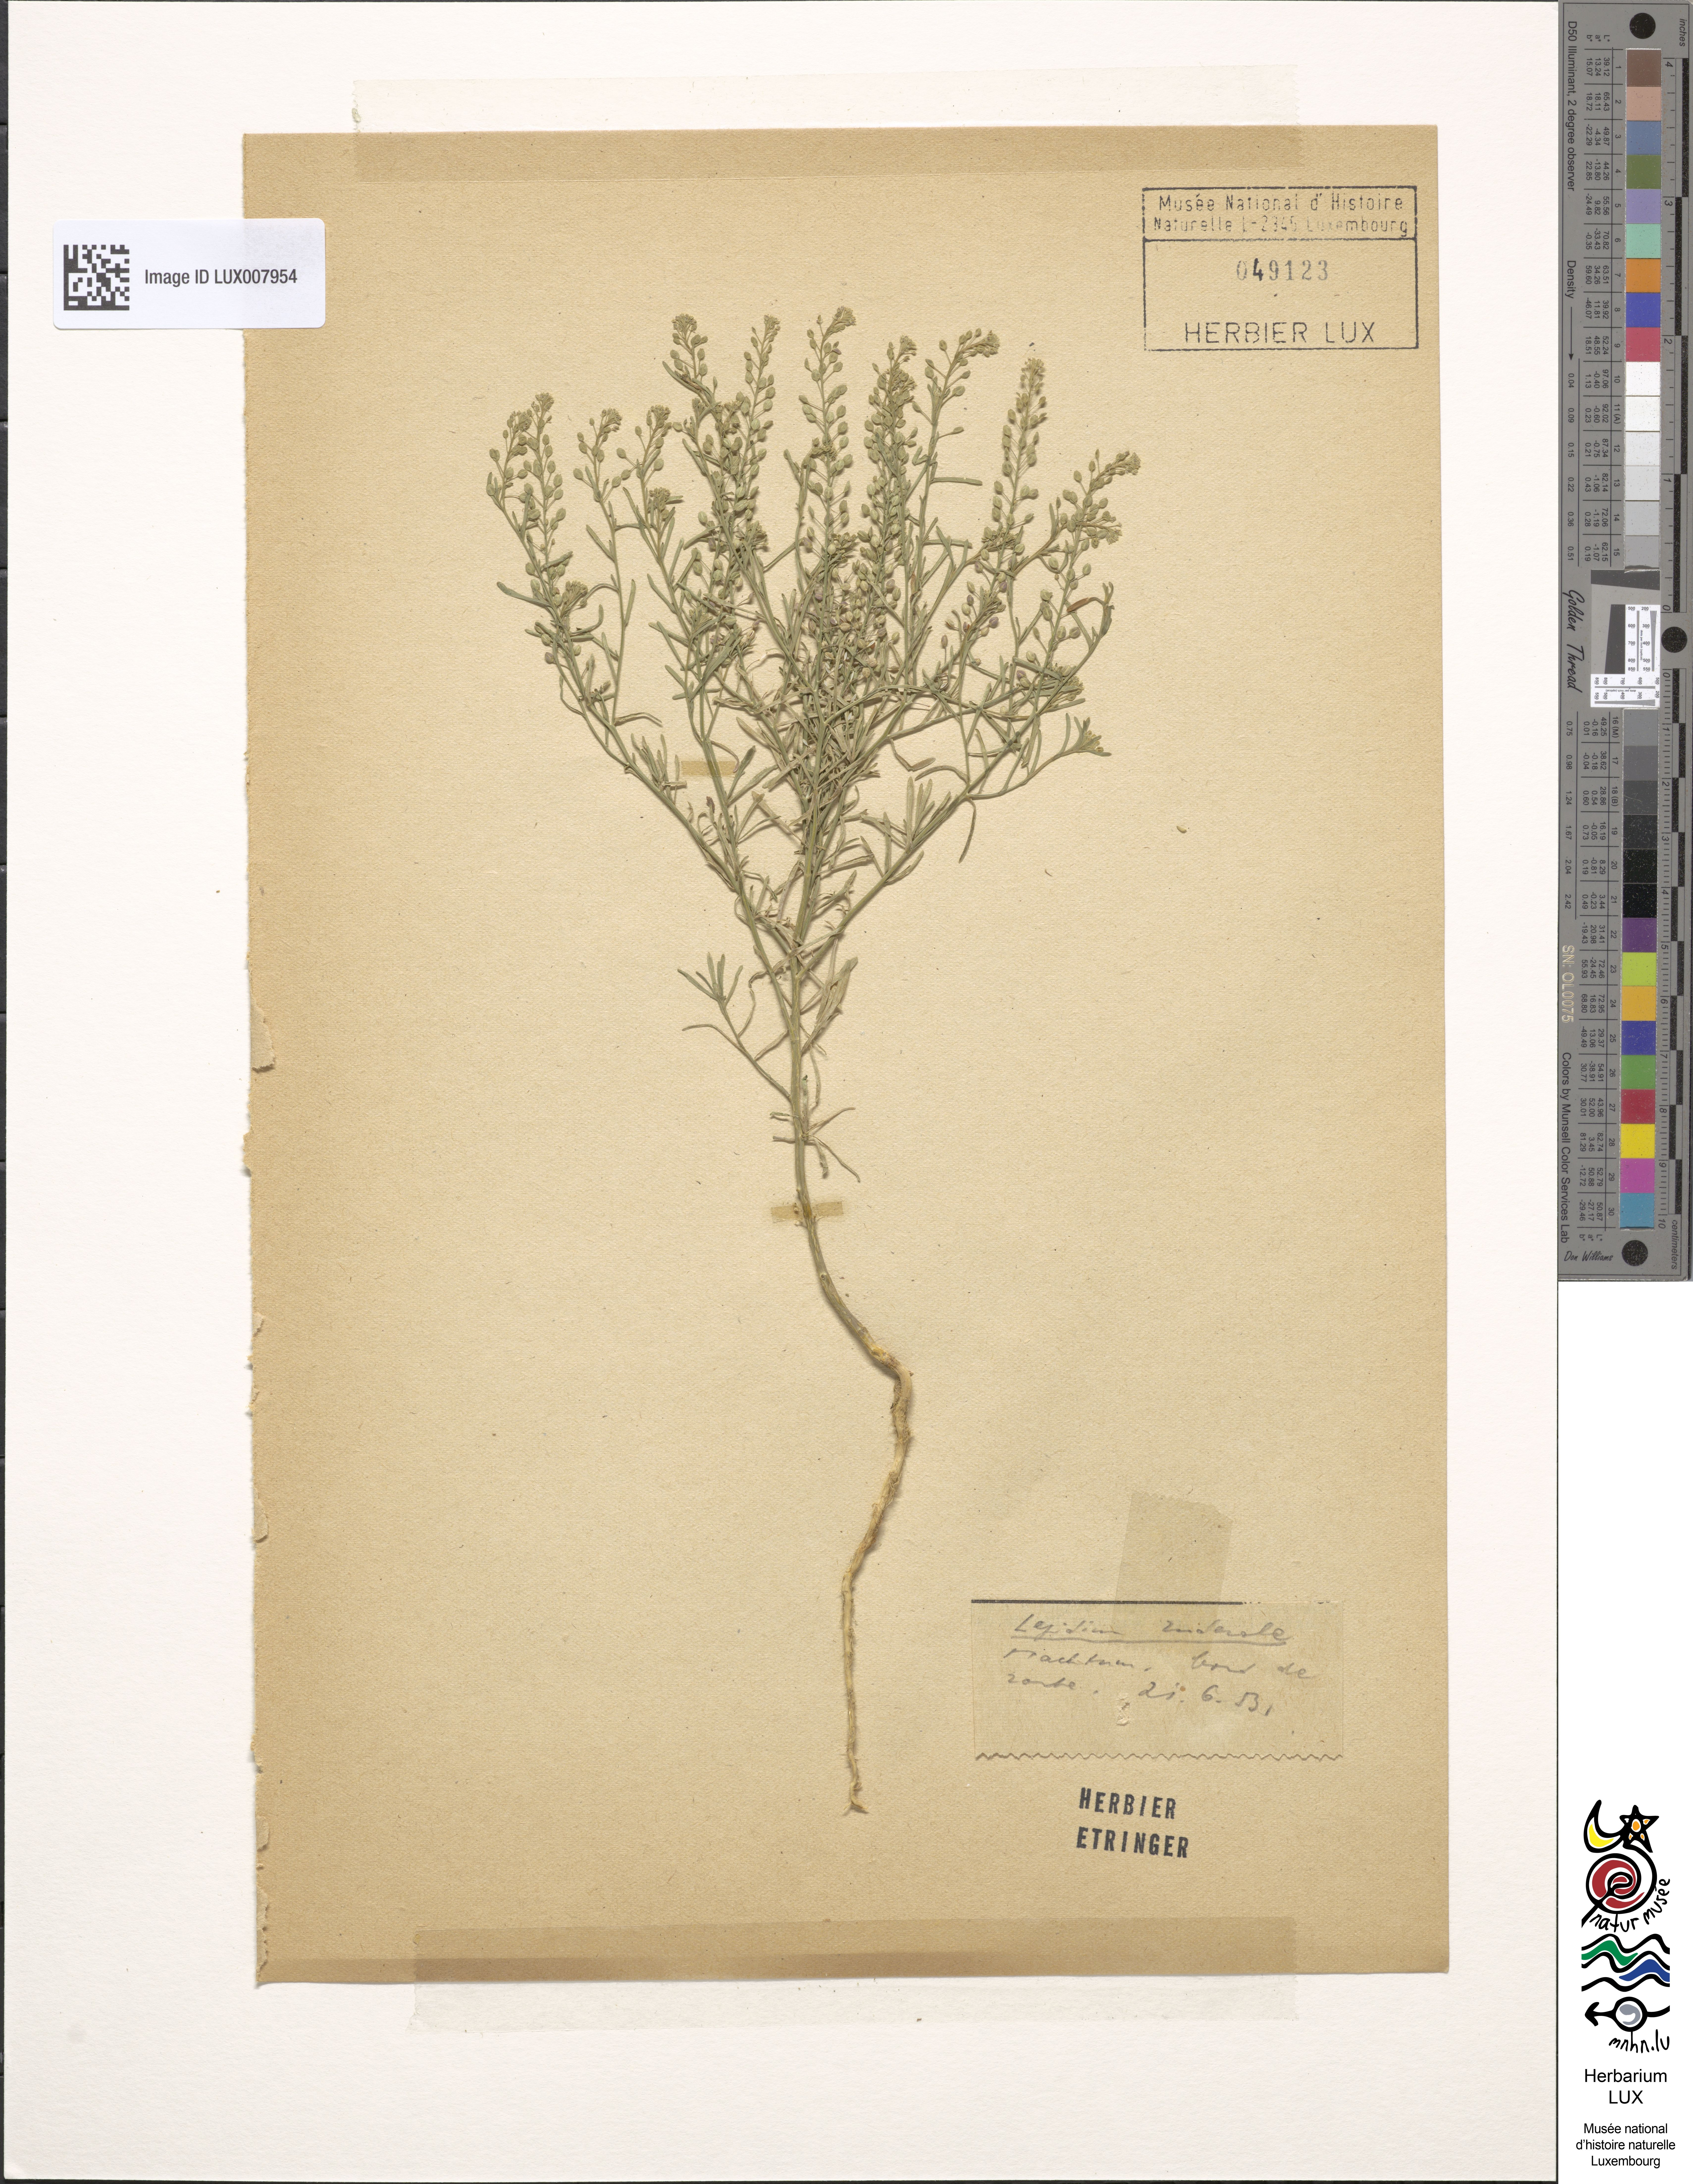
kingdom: Plantae
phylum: Tracheophyta
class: Magnoliopsida
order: Brassicales
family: Brassicaceae
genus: Lepidium
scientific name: Lepidium ruderale
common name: Narrow-leaved pepperwort
